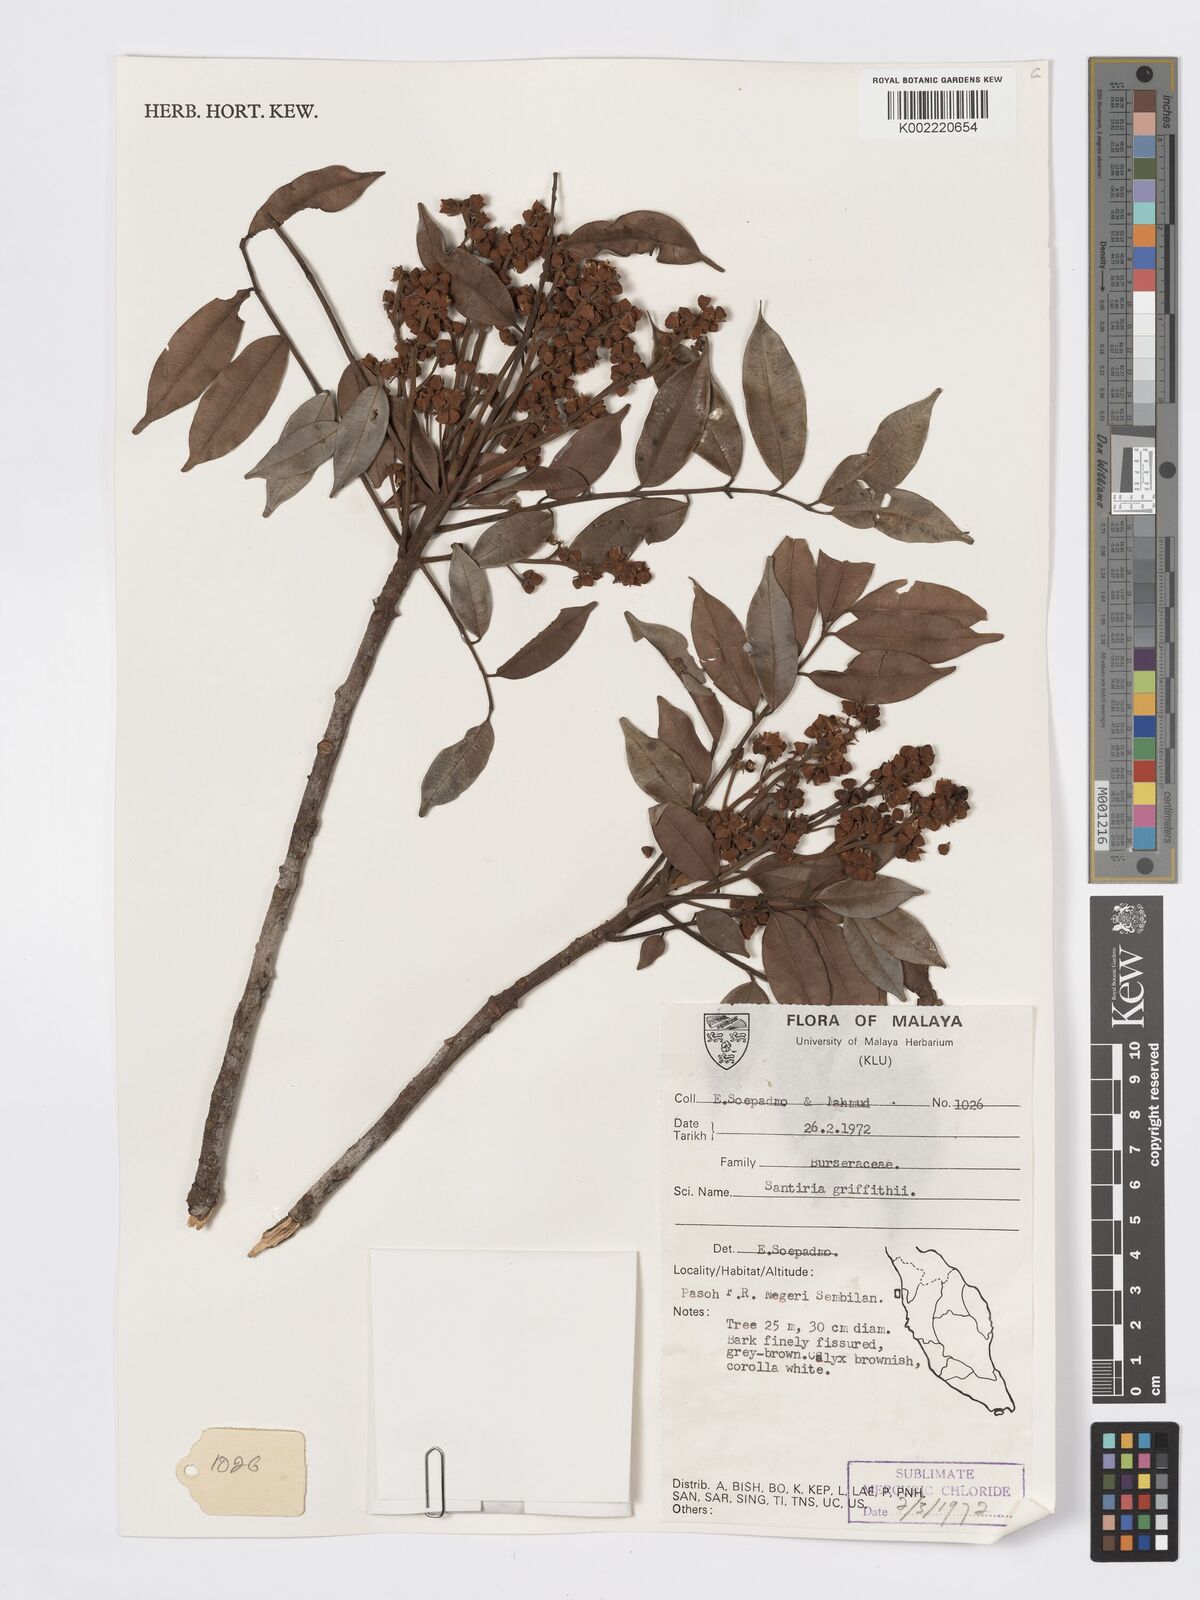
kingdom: Plantae
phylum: Tracheophyta
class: Magnoliopsida
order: Sapindales
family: Burseraceae
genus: Santiria
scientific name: Santiria griffithii
